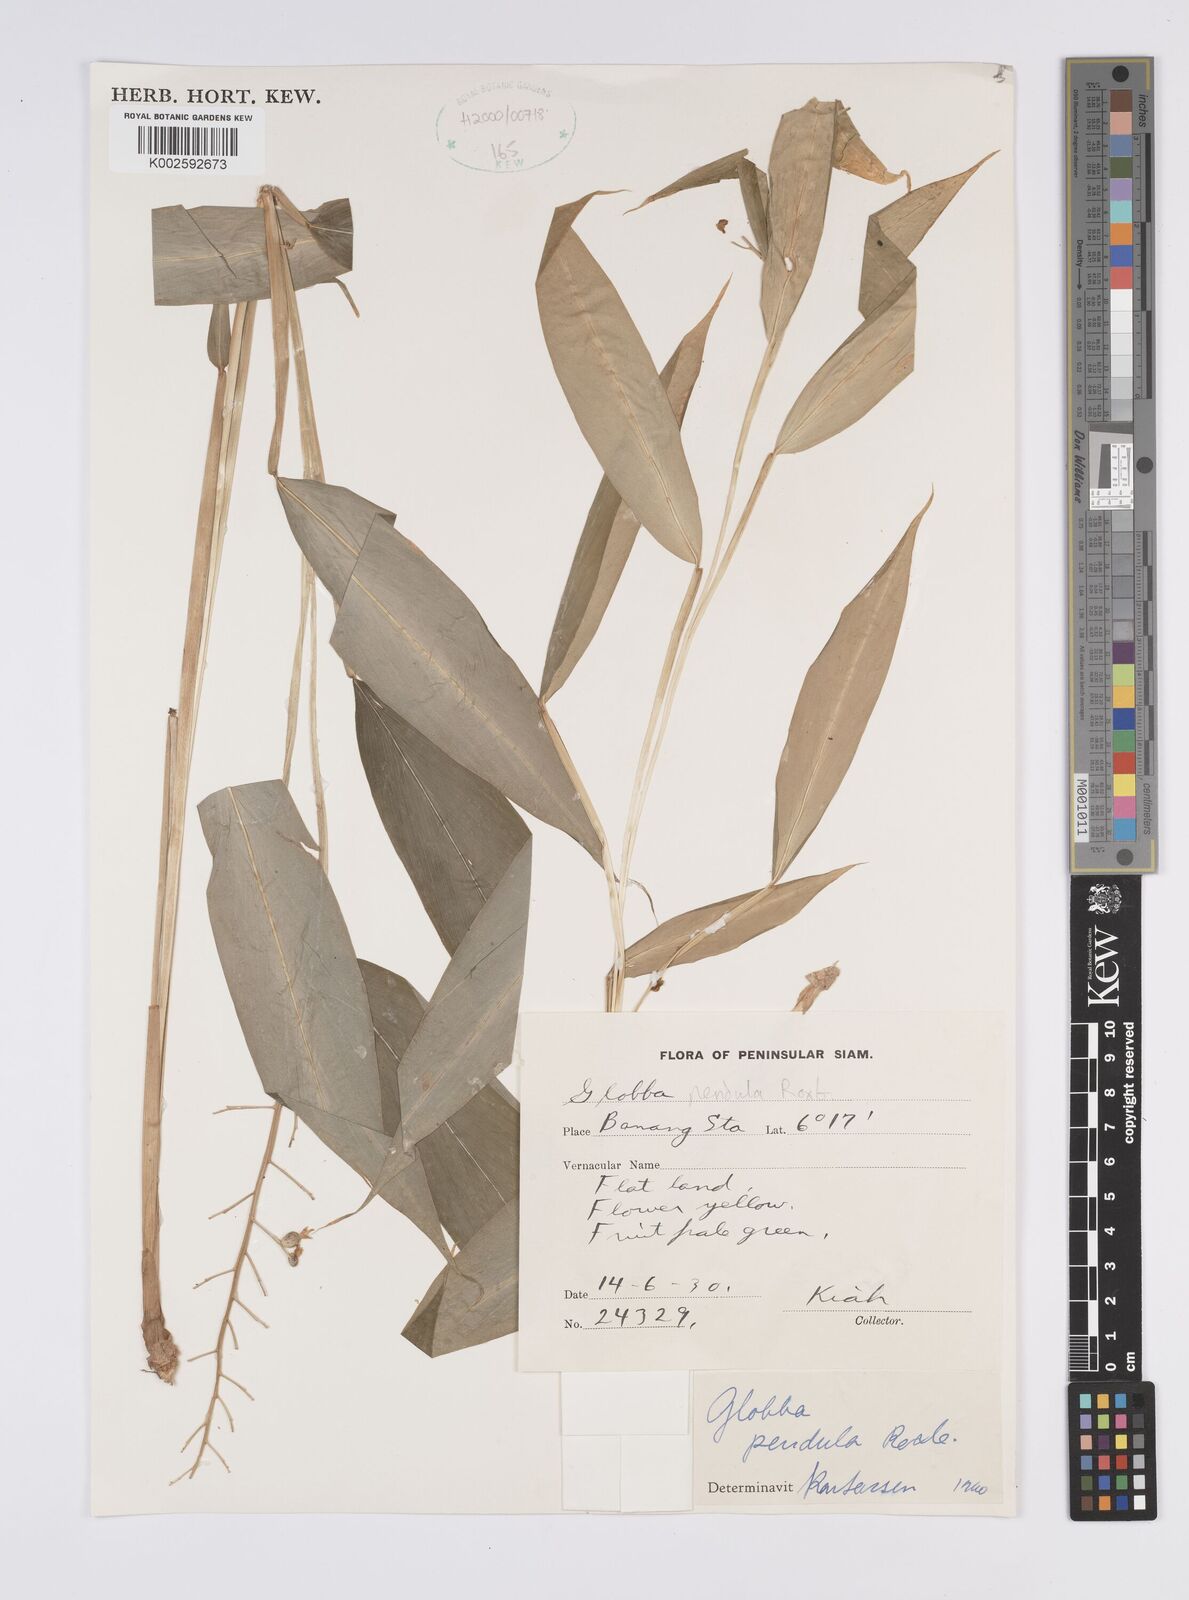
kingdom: Plantae
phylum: Tracheophyta
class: Liliopsida
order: Zingiberales
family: Zingiberaceae
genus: Globba
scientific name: Globba pendula
